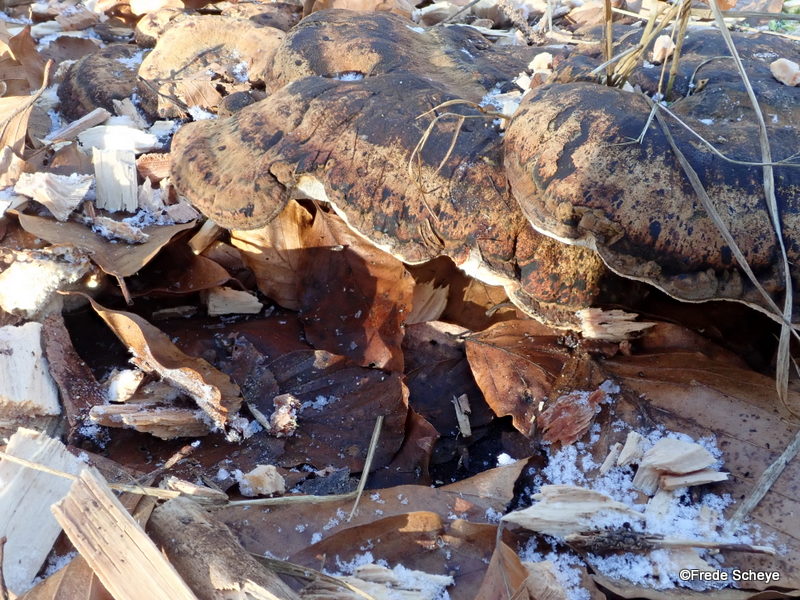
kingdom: Fungi
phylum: Basidiomycota
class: Agaricomycetes
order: Polyporales
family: Ischnodermataceae
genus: Ischnoderma
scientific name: Ischnoderma resinosum
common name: løv-tjæreporesvamp
